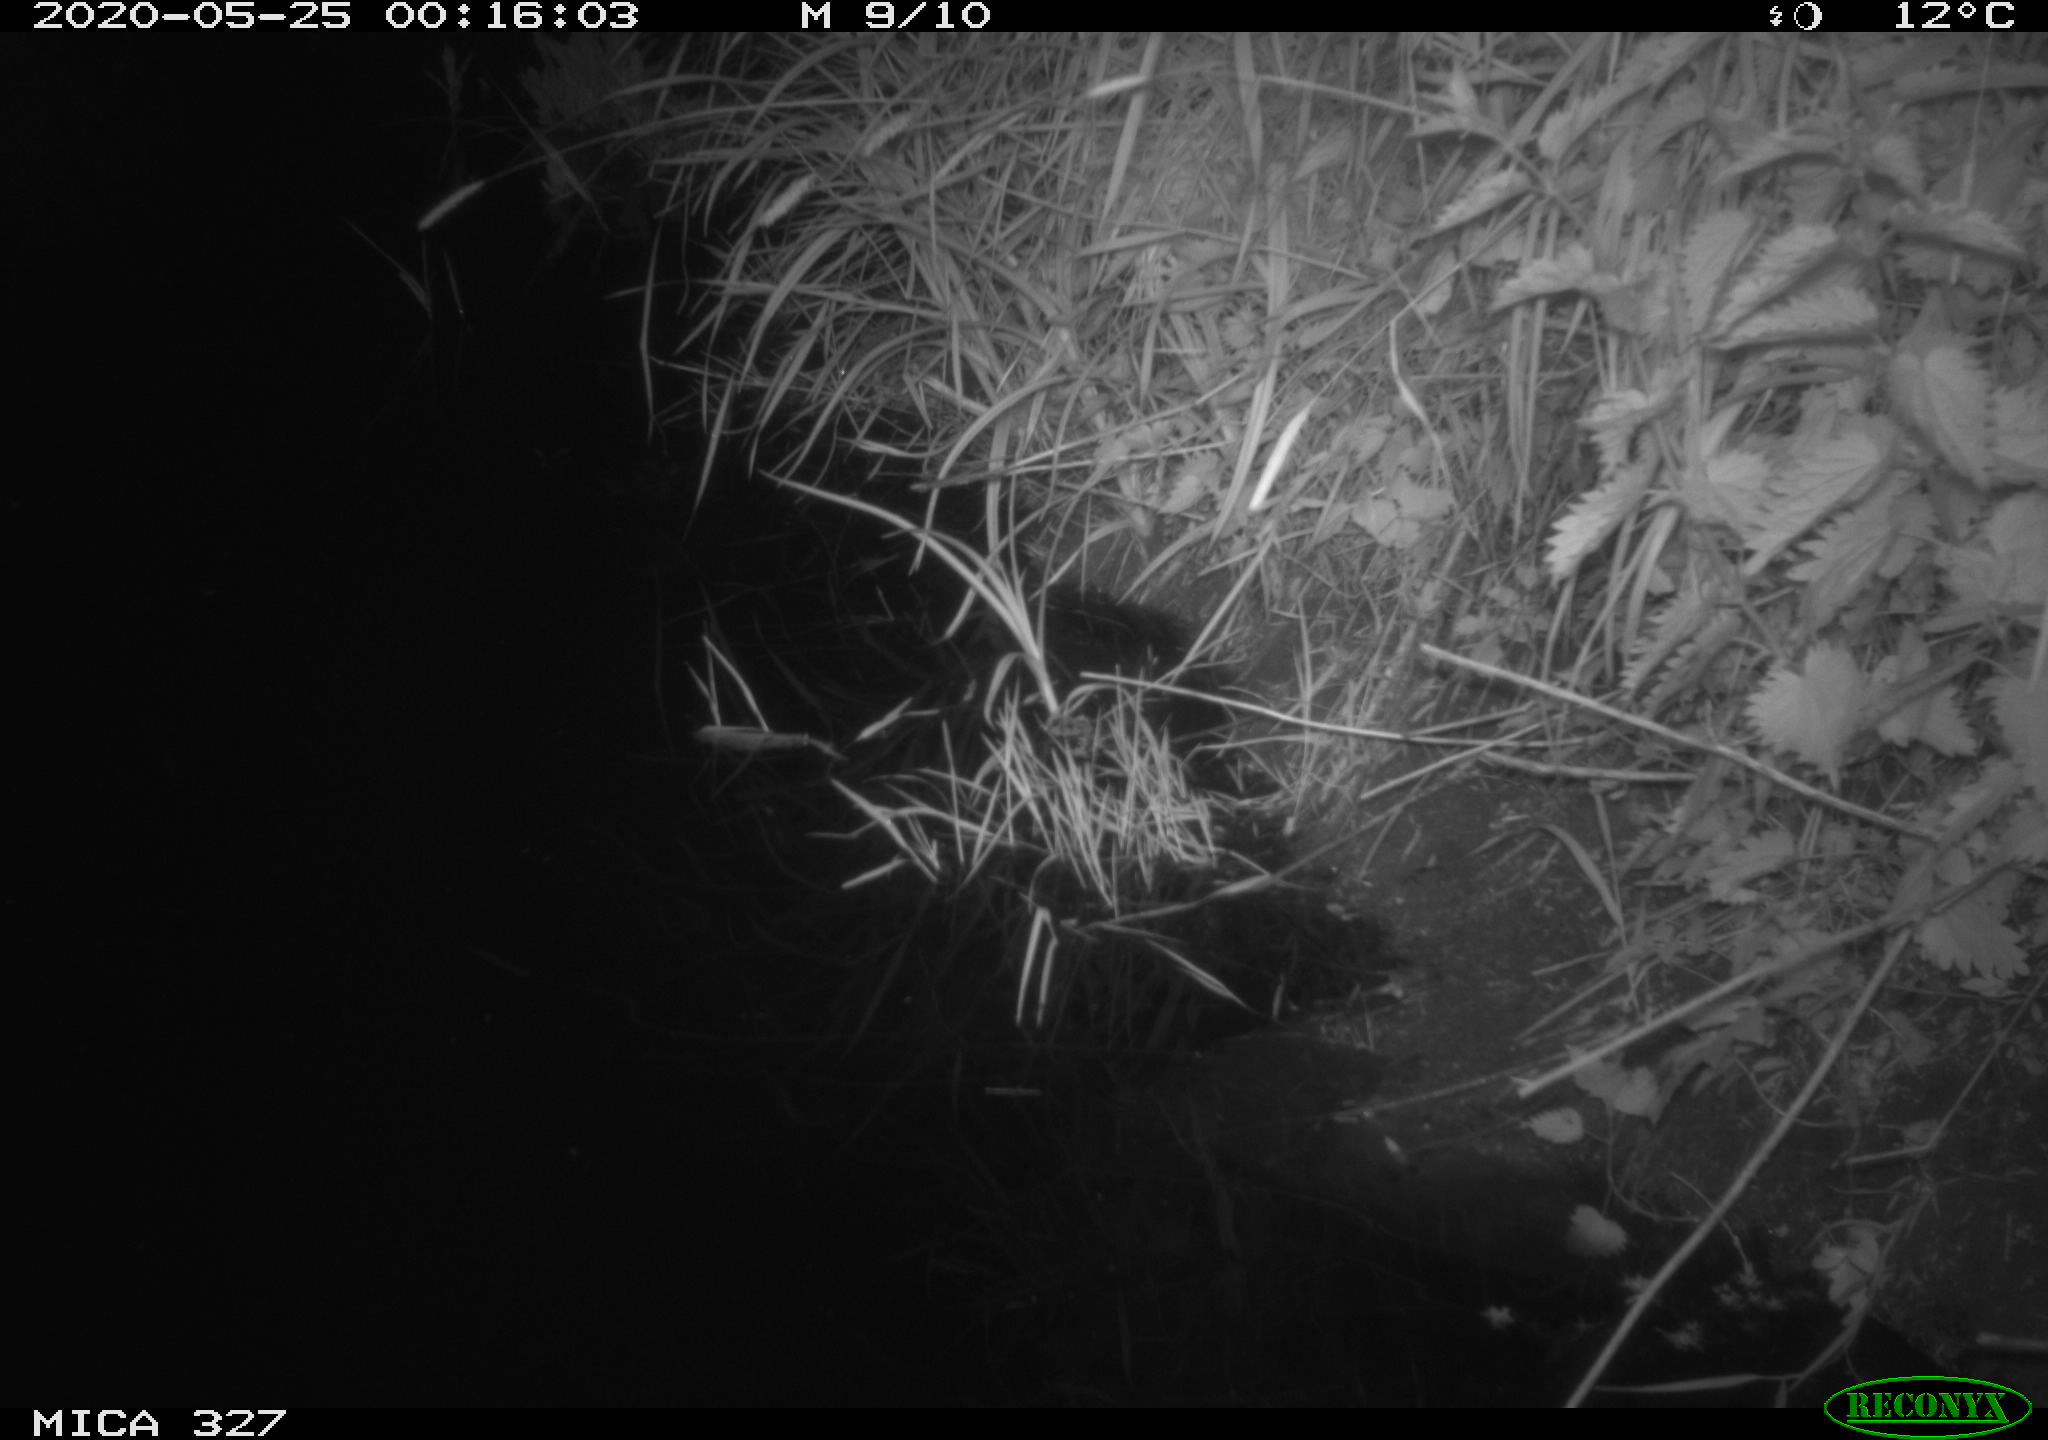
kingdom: Animalia
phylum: Chordata
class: Mammalia
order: Rodentia
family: Muridae
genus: Rattus
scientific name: Rattus norvegicus
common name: Brown rat
